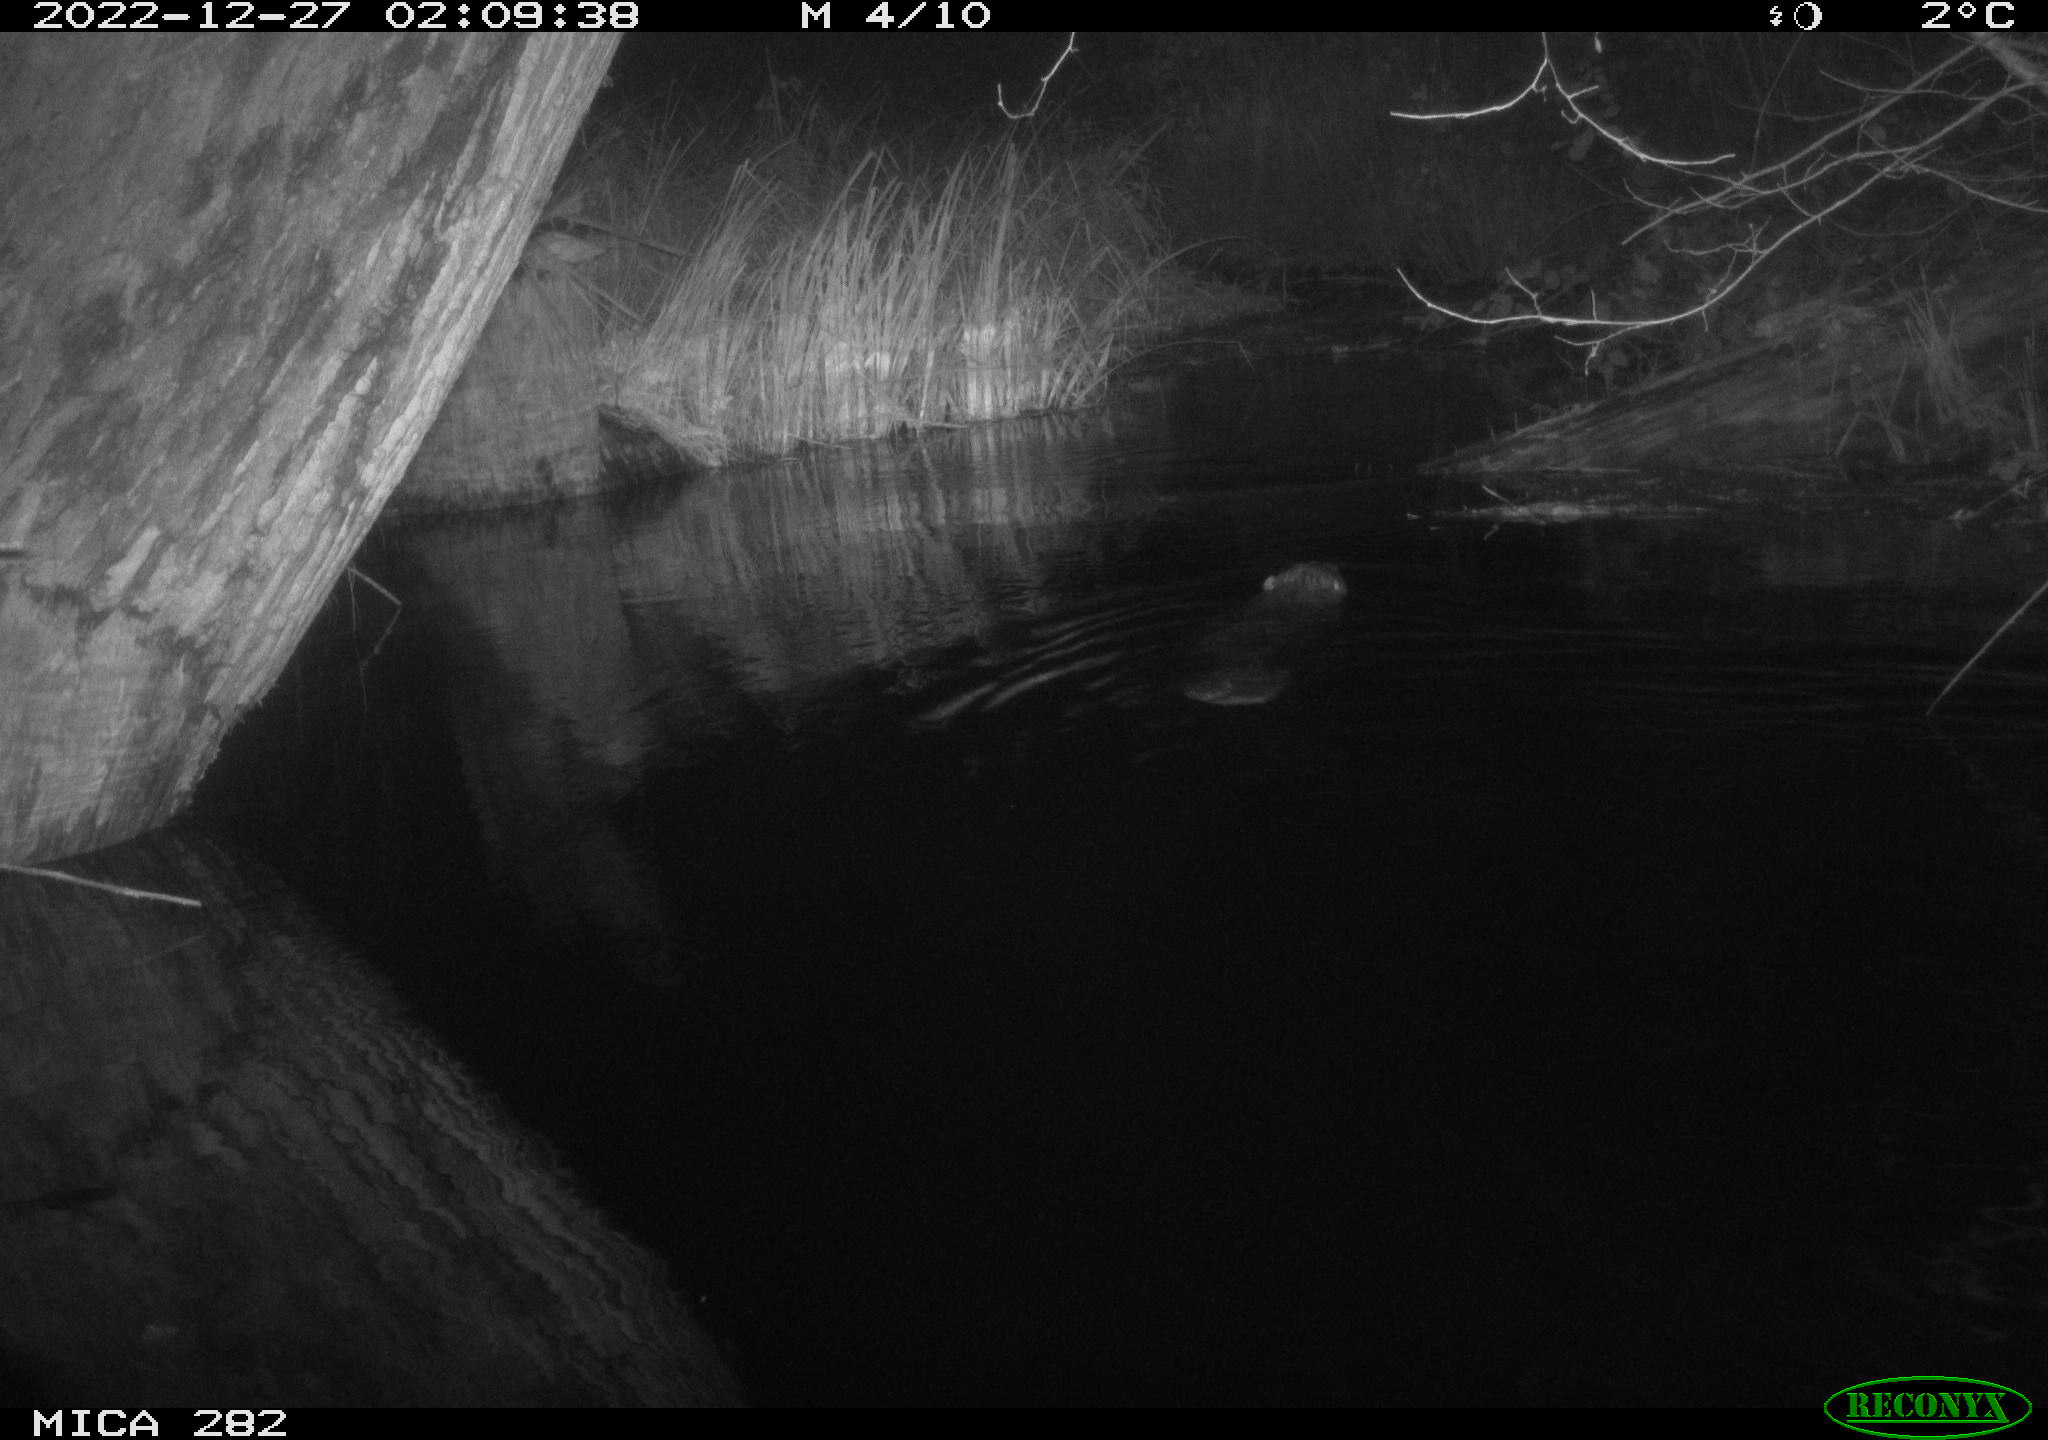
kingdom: Animalia
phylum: Chordata
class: Mammalia
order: Rodentia
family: Castoridae
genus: Castor
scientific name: Castor fiber
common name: Eurasian beaver
